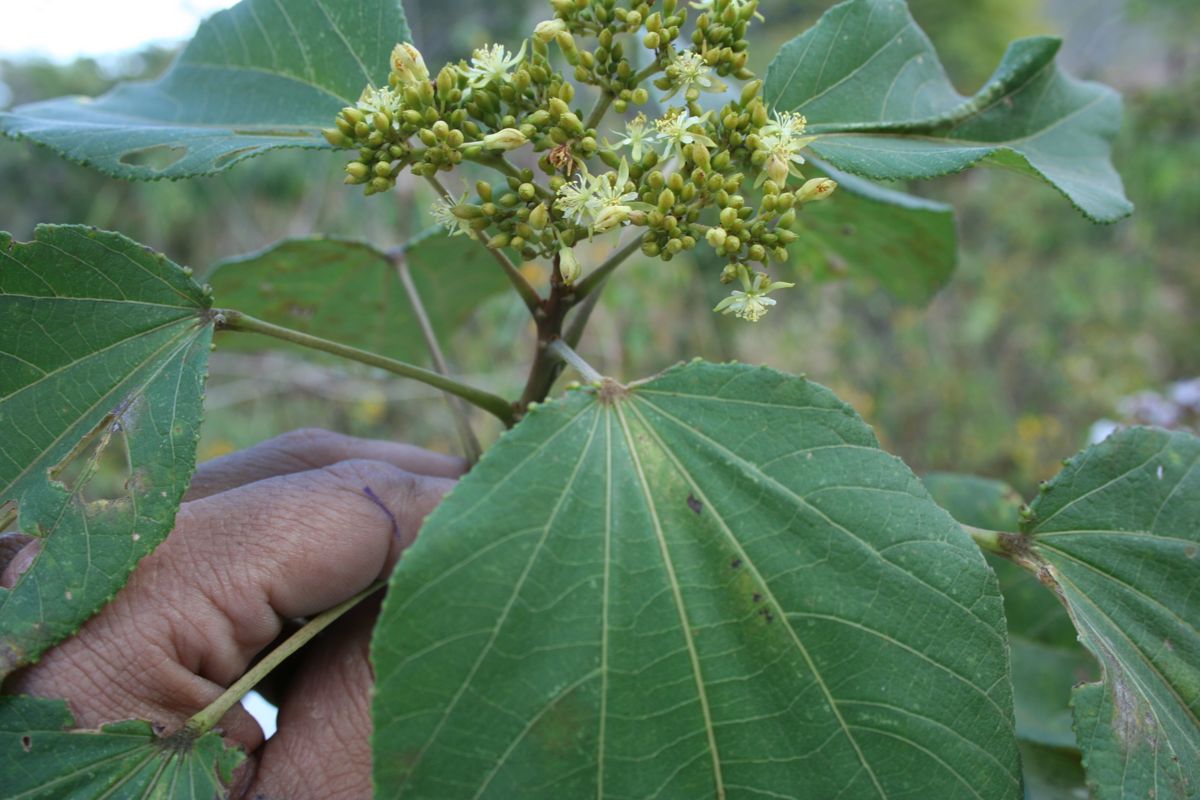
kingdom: Plantae
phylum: Tracheophyta
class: Magnoliopsida
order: Malvales
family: Malvaceae
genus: Heliocarpus
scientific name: Heliocarpus mexicanus
